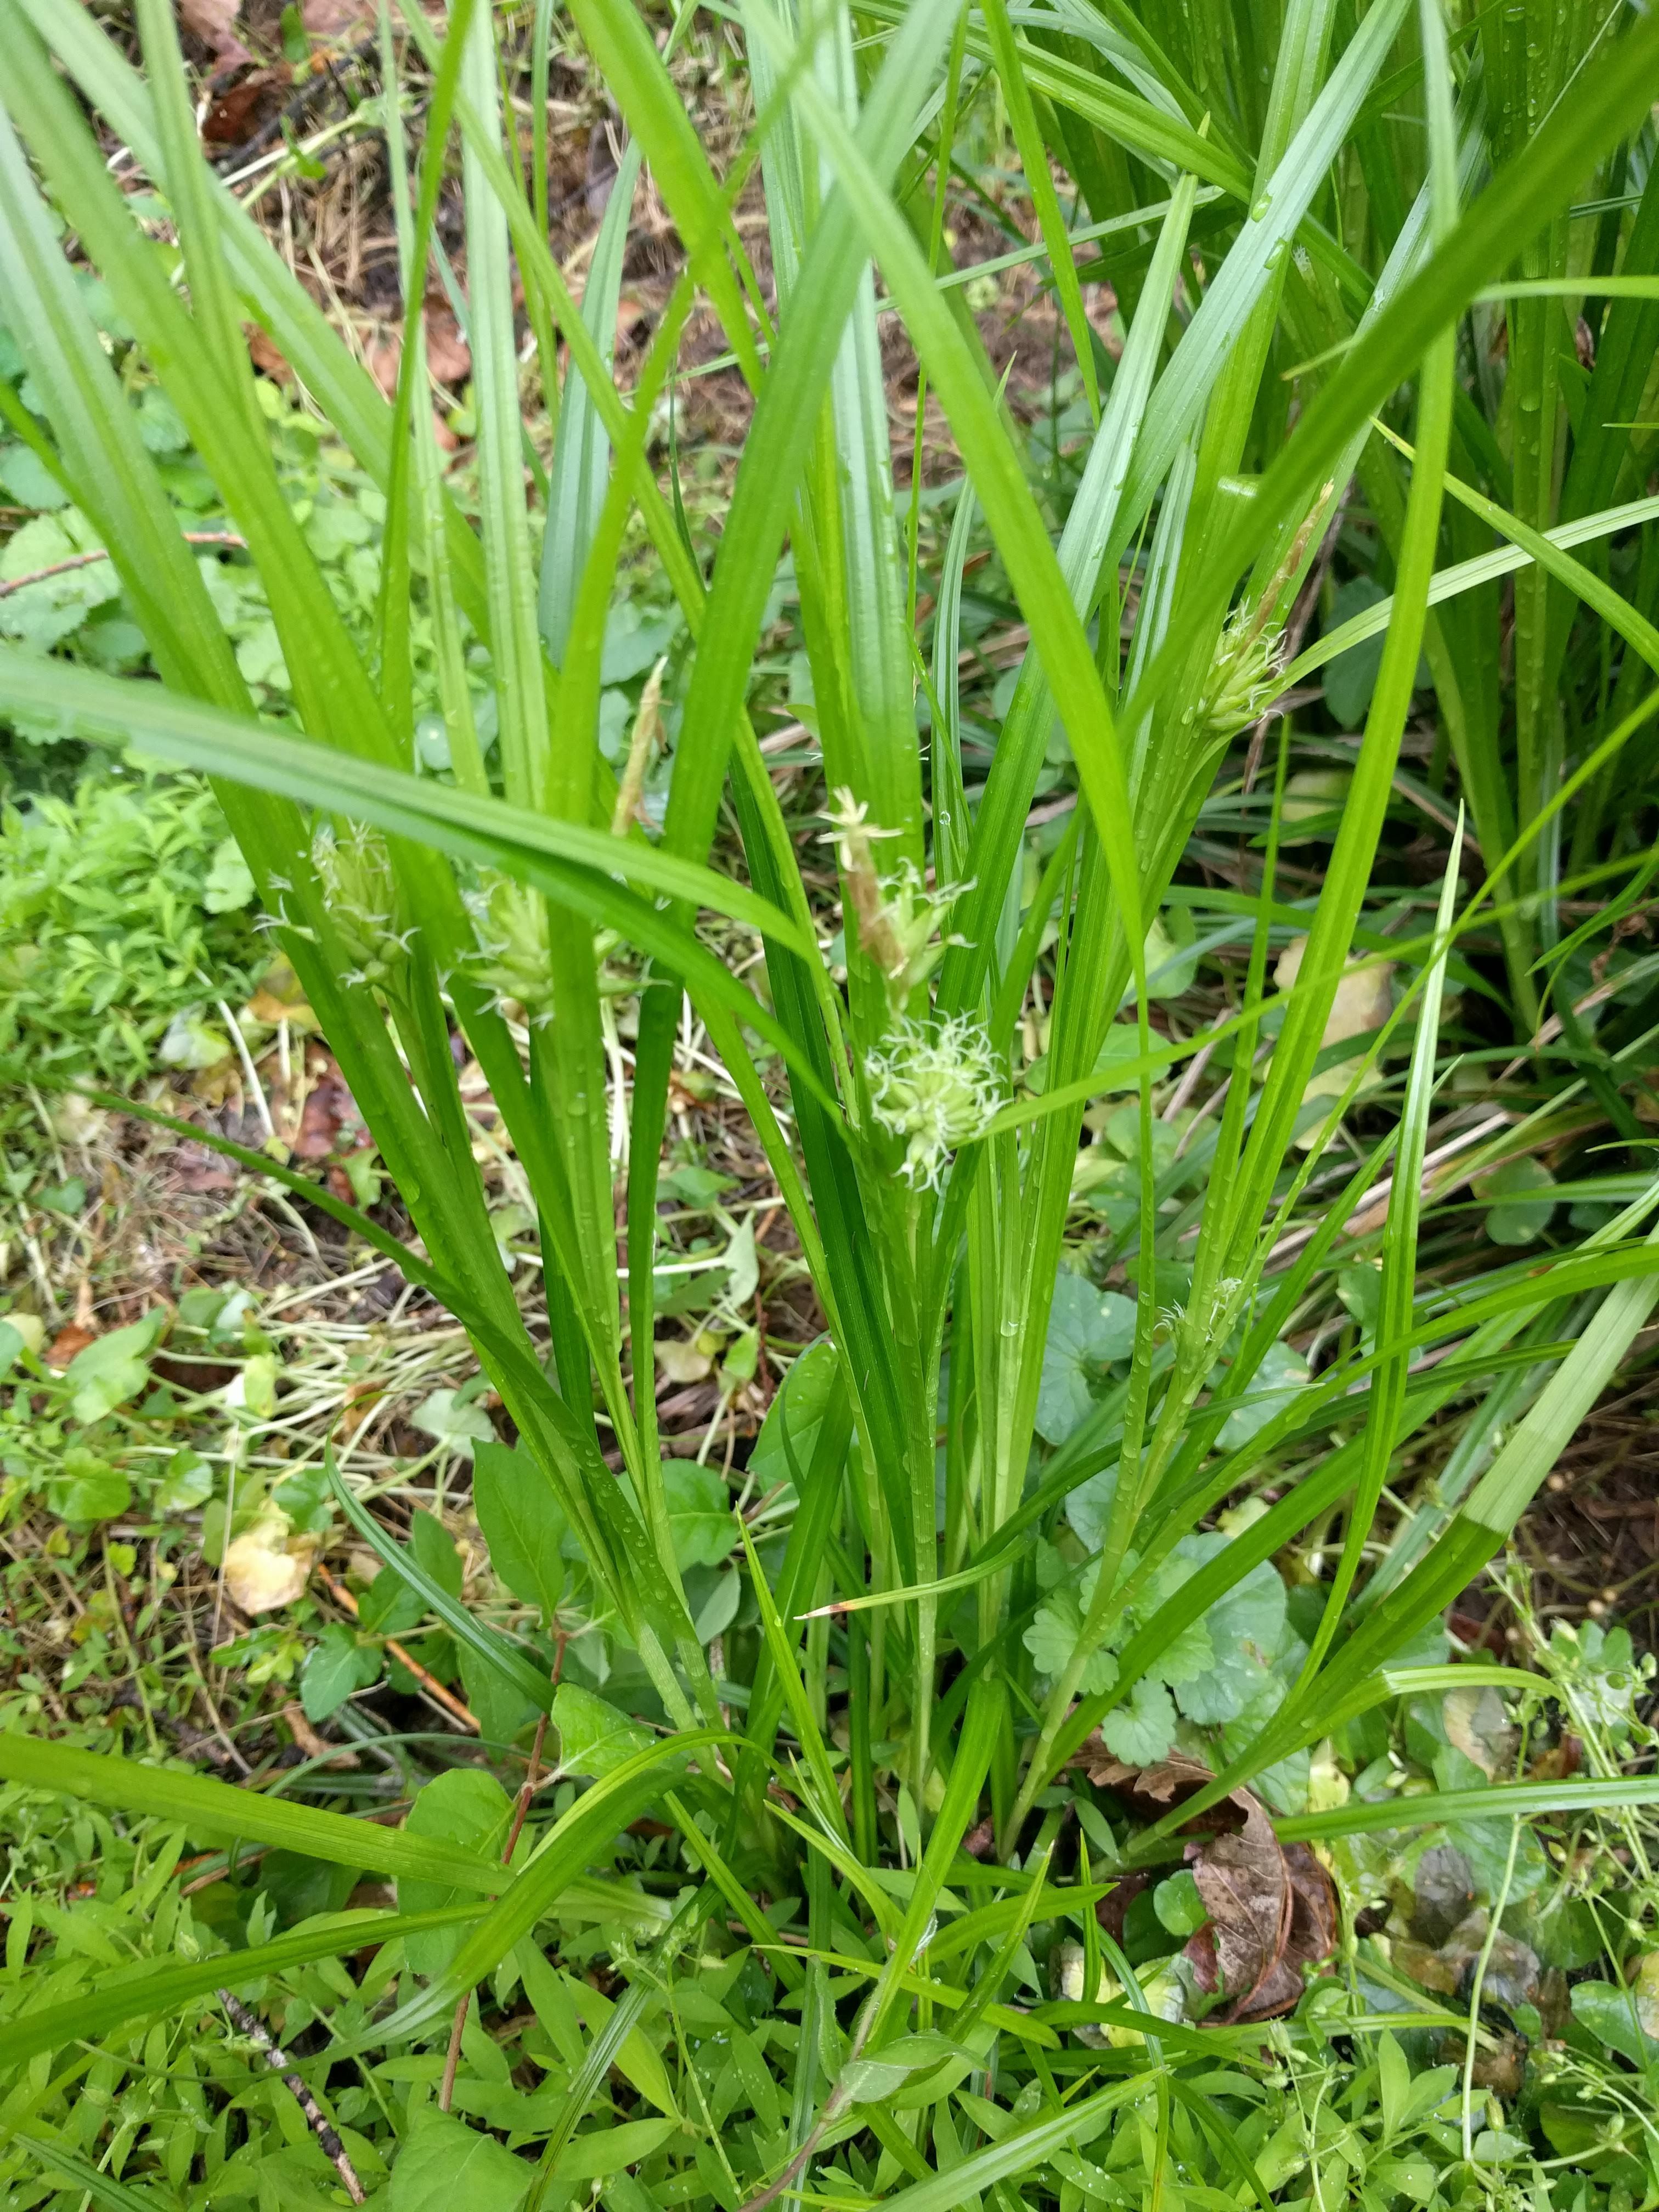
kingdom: Plantae
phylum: Tracheophyta
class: Liliopsida
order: Poales
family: Cyperaceae
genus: Carex
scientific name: Carex grayi
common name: Asa gray's sedge
